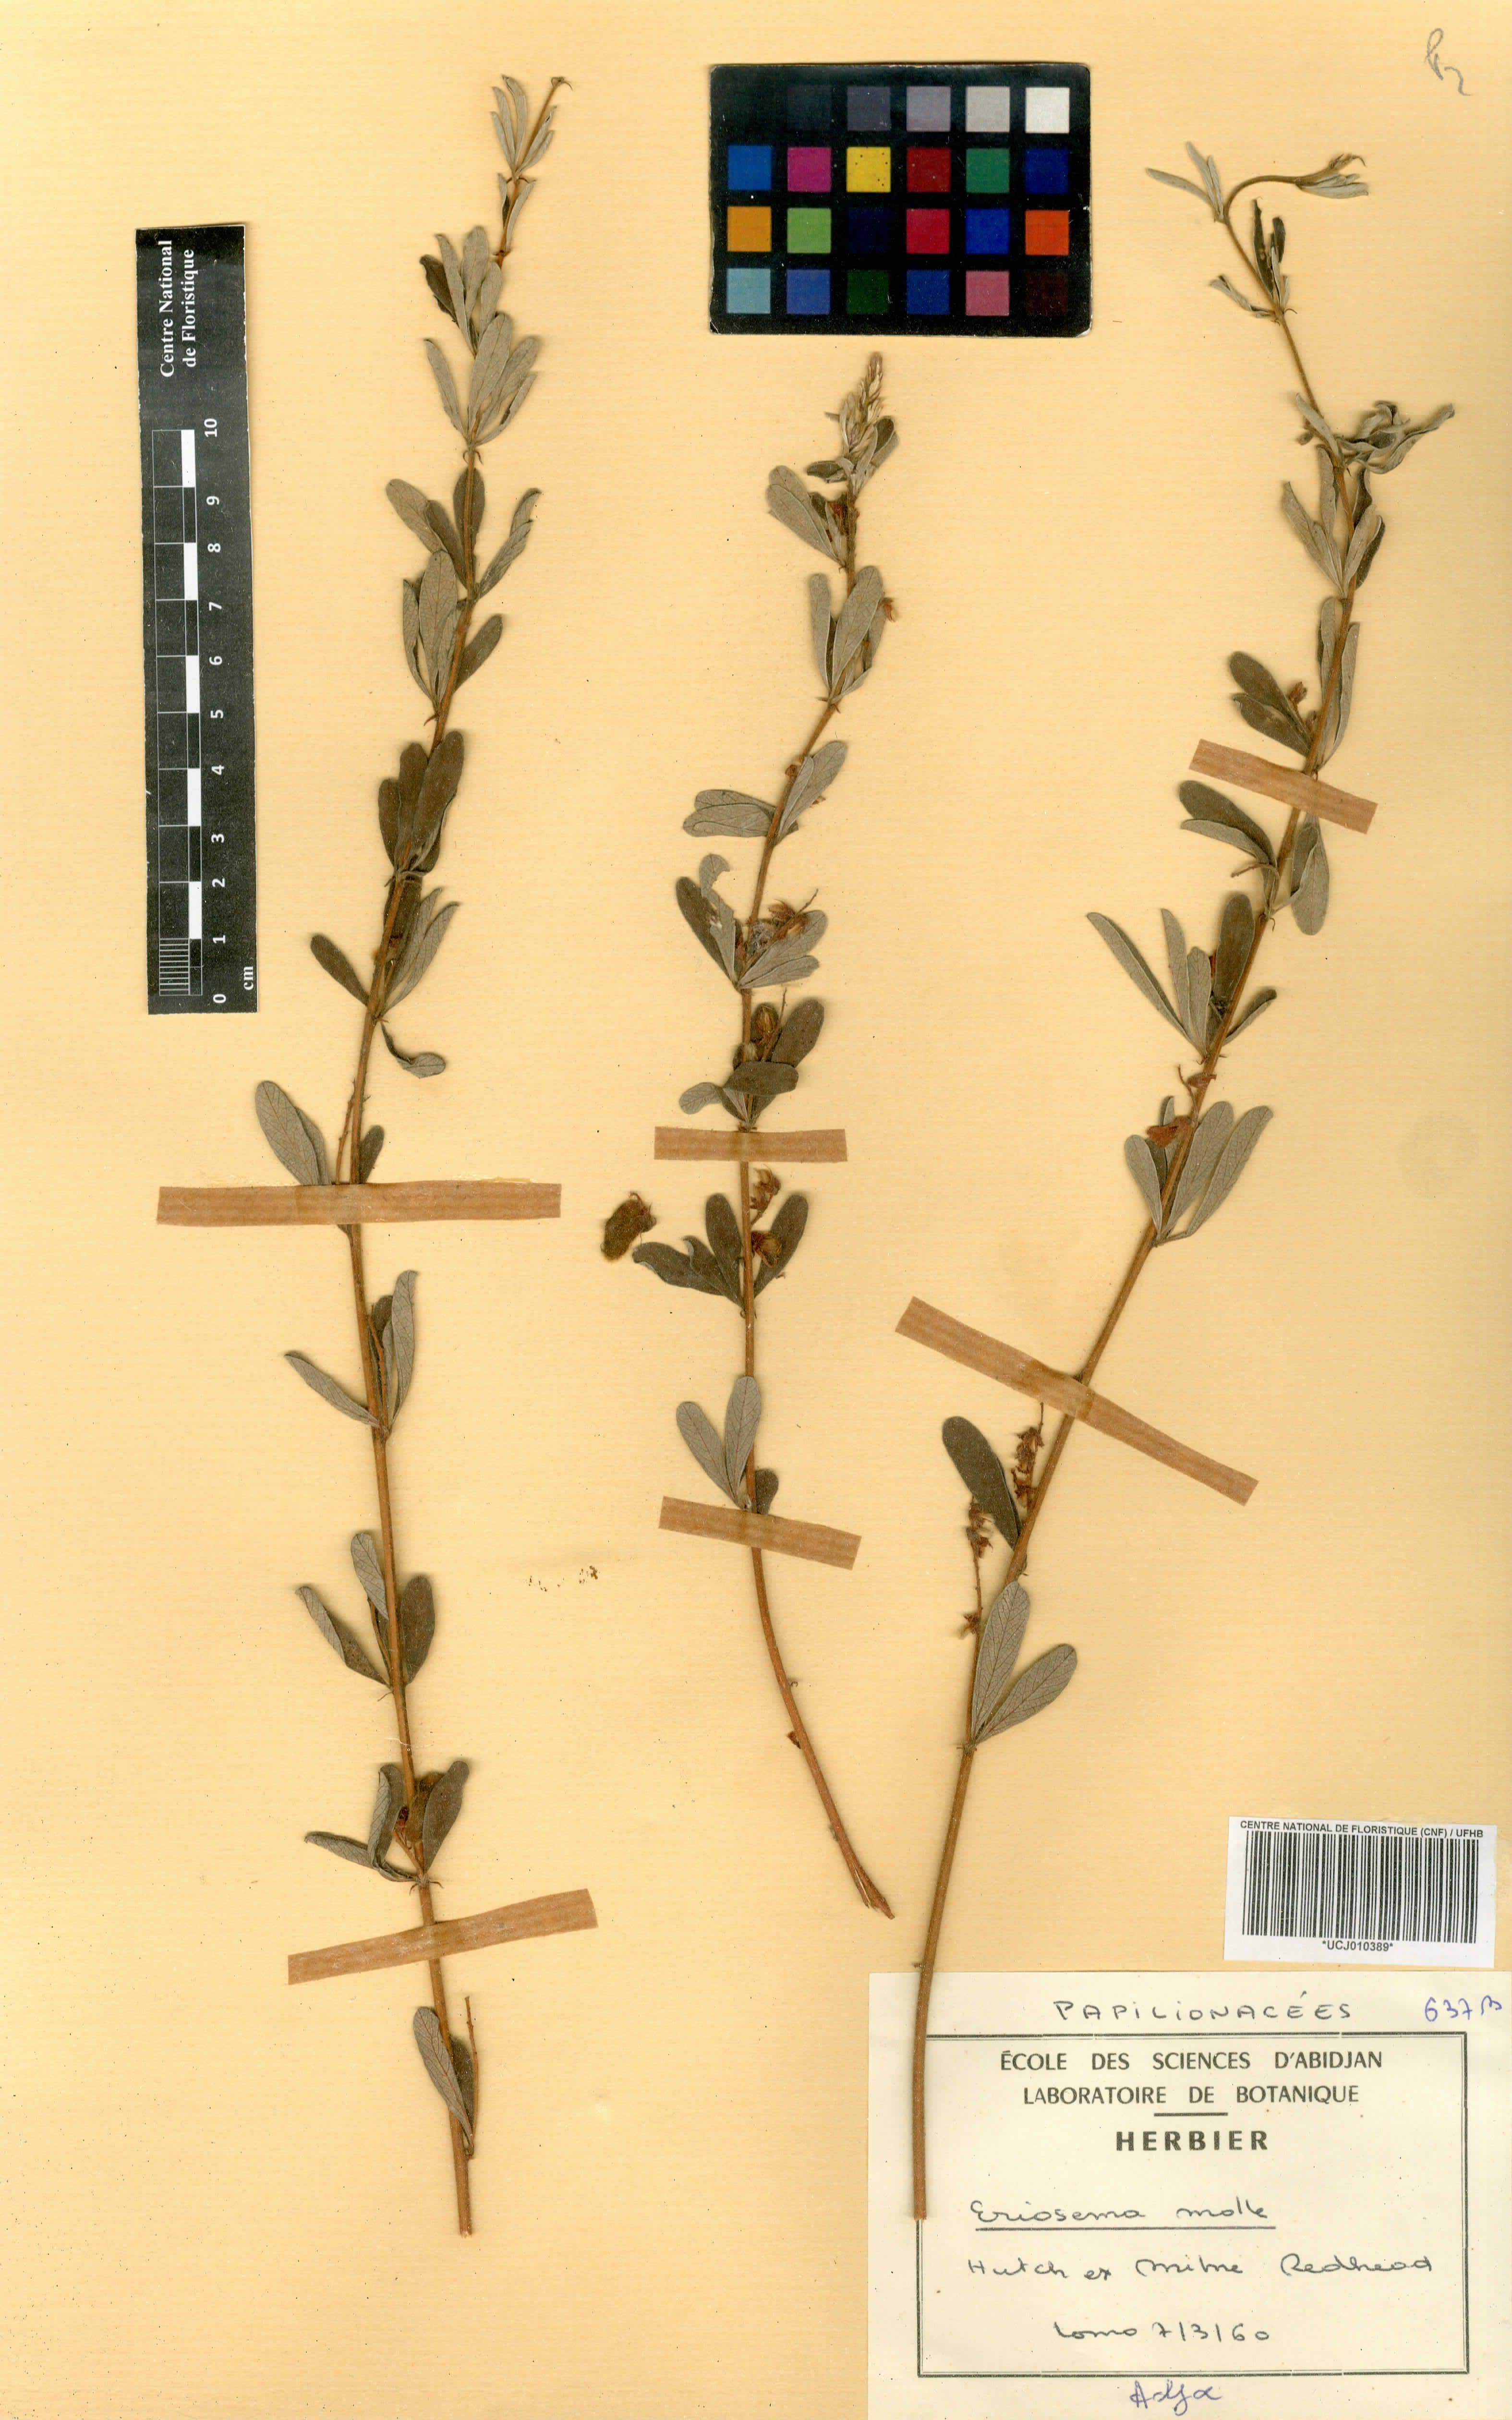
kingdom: Plantae
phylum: Tracheophyta
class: Magnoliopsida
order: Fabales
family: Fabaceae
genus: Eriosema
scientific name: Eriosema molle
